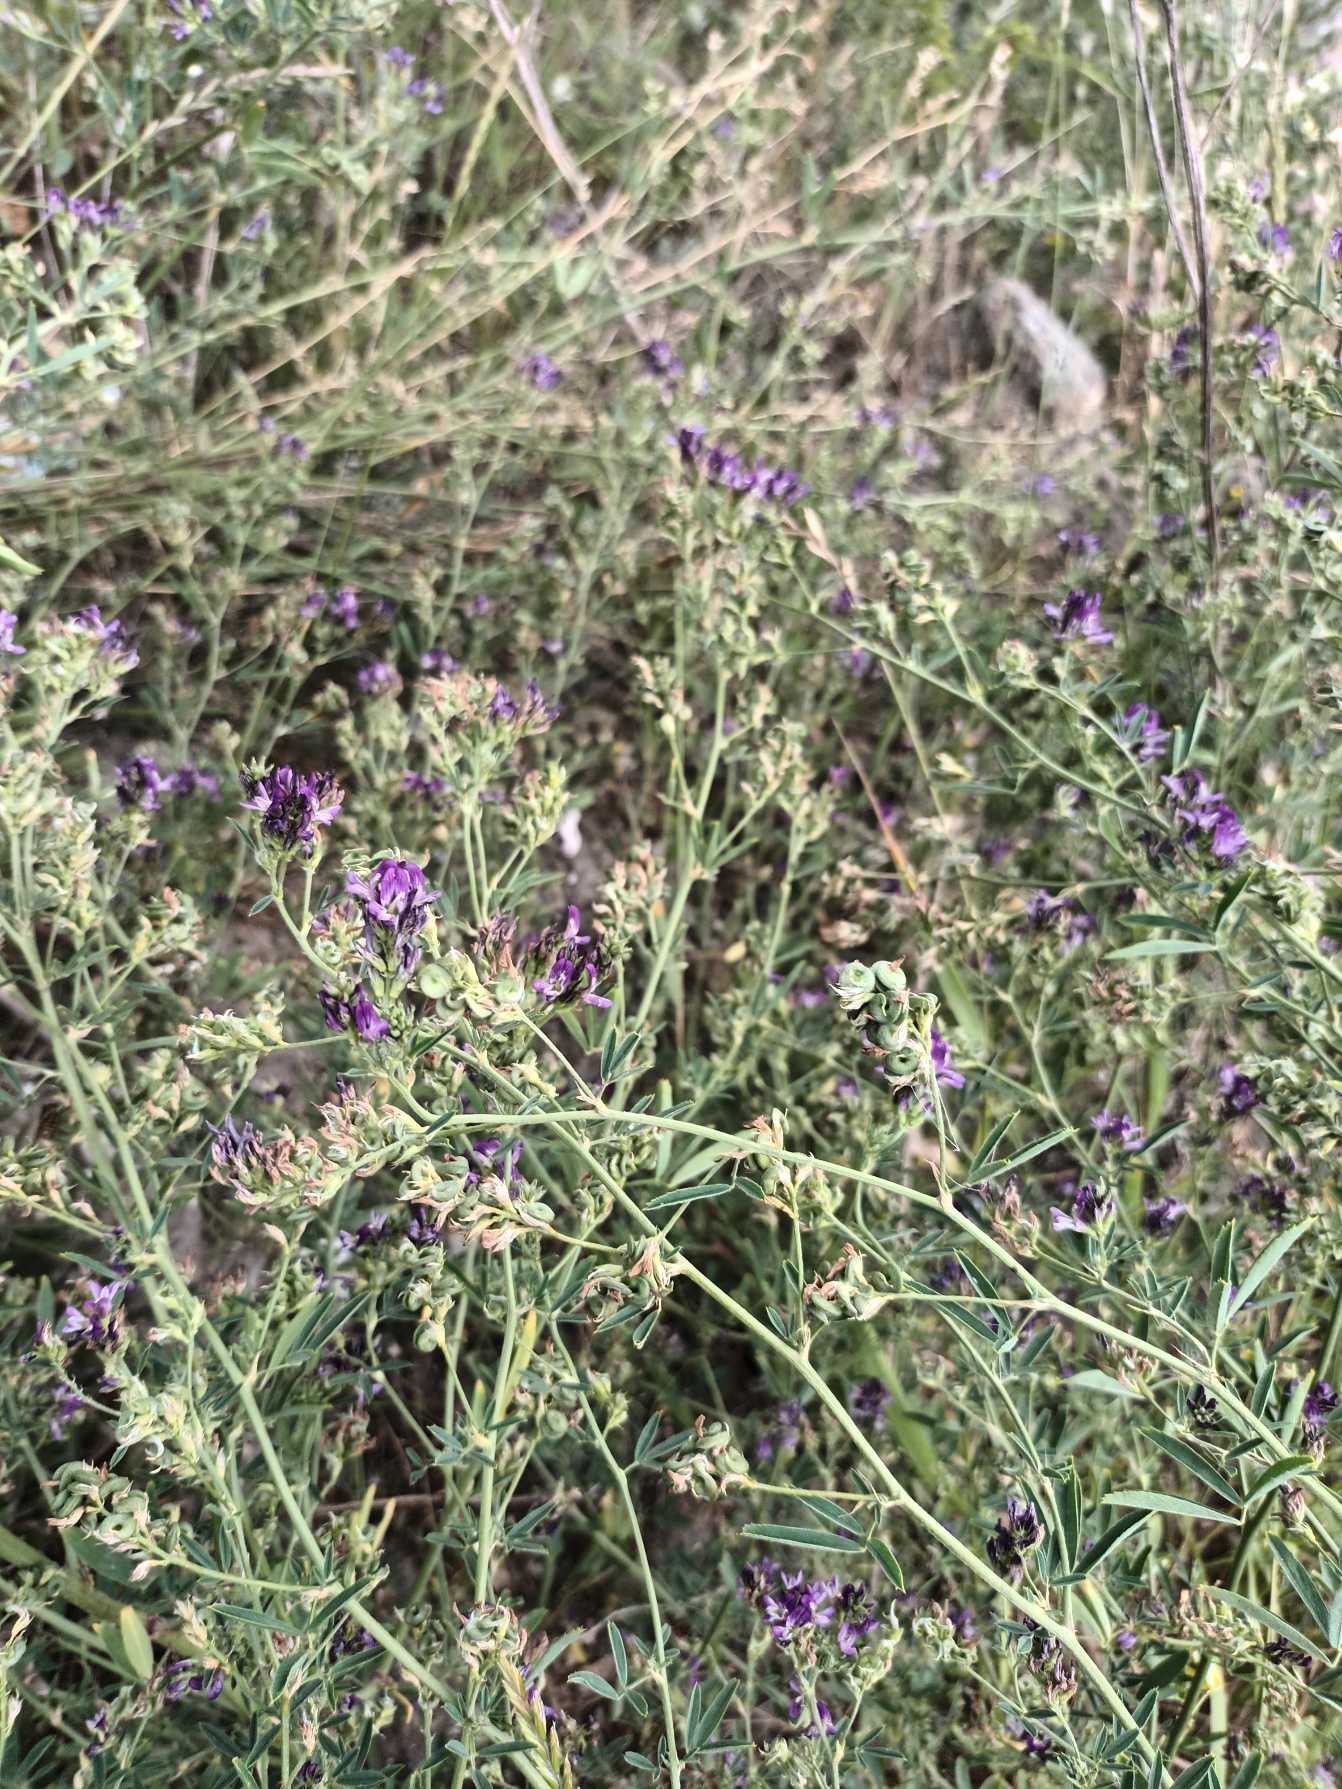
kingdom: Plantae
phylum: Tracheophyta
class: Magnoliopsida
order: Fabales
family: Fabaceae
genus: Medicago
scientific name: Medicago sativa
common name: Lucerne
